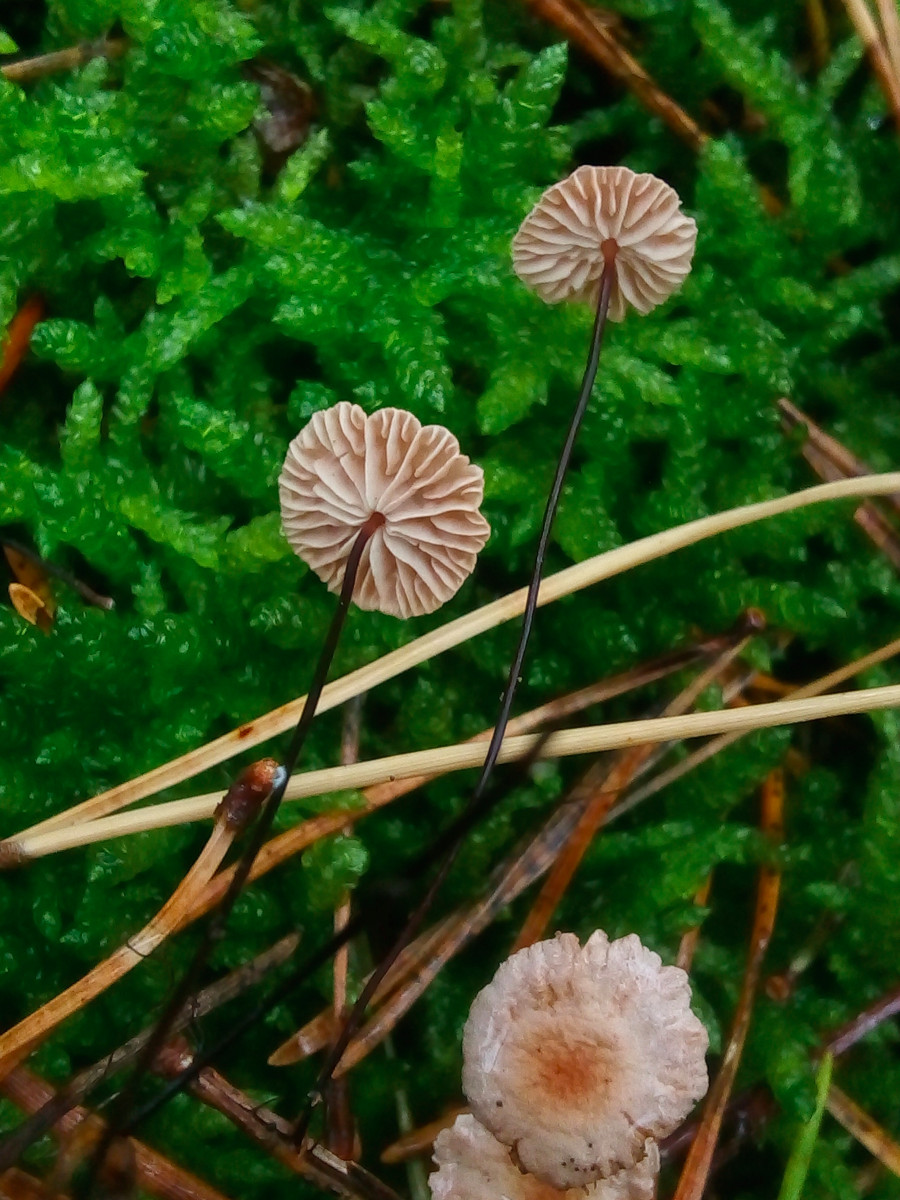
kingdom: Fungi
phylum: Basidiomycota
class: Agaricomycetes
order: Agaricales
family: Omphalotaceae
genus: Gymnopus
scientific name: Gymnopus androsaceus
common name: trådstokket fladhat
